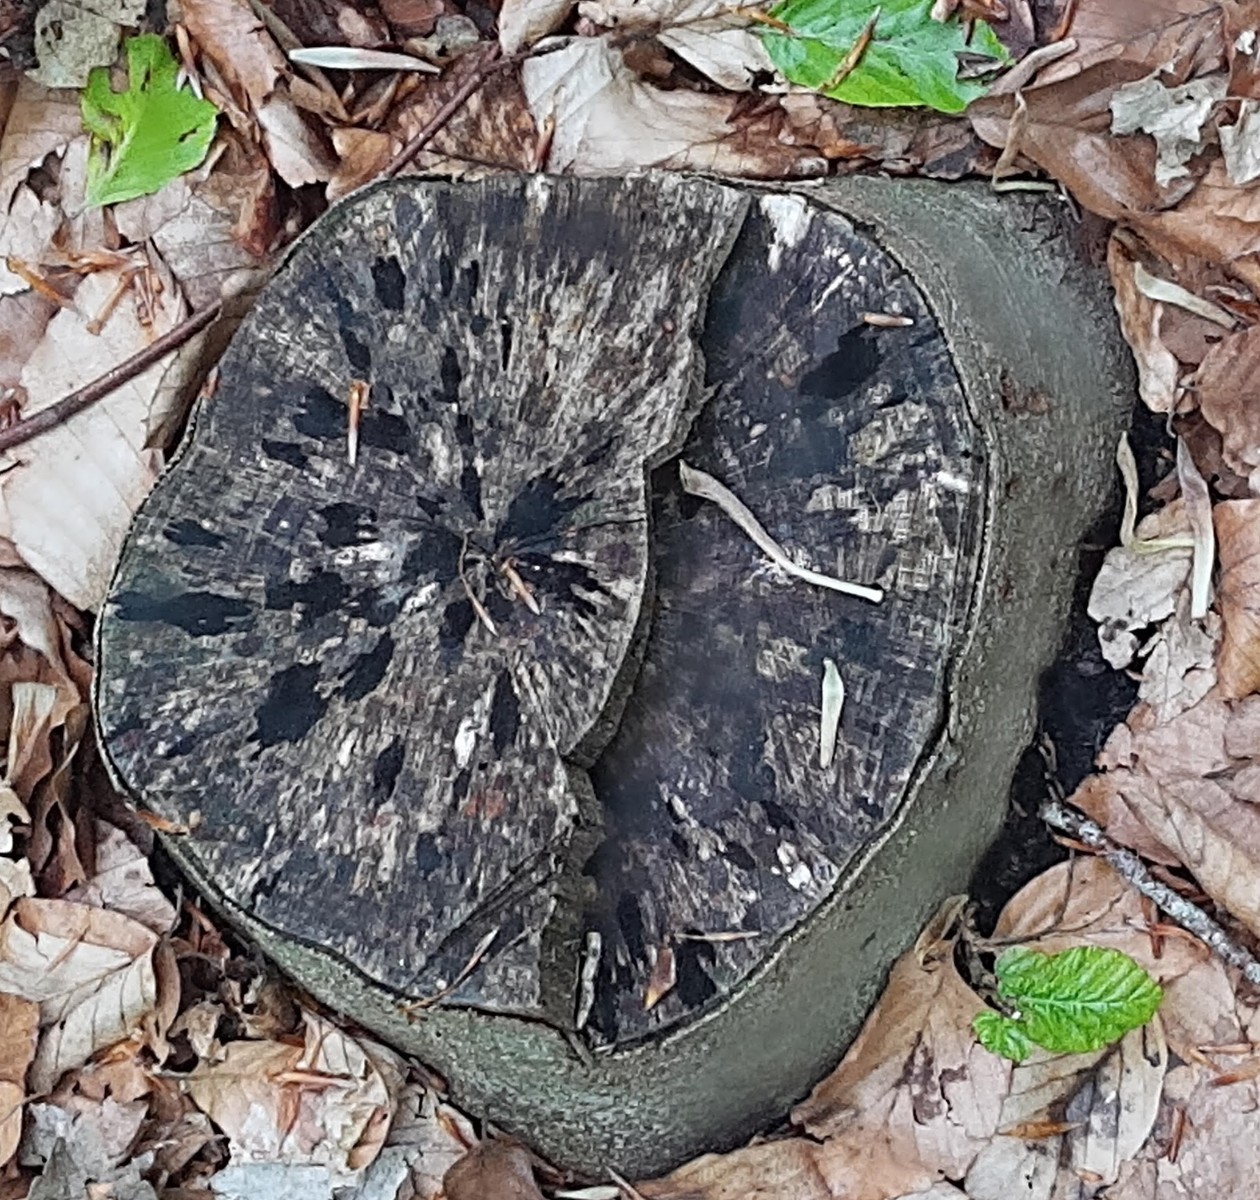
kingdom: Fungi
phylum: Ascomycota
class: Leotiomycetes
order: Helotiales
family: Helotiaceae
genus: Bispora
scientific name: Bispora pallescens
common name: måtte-snitskive
